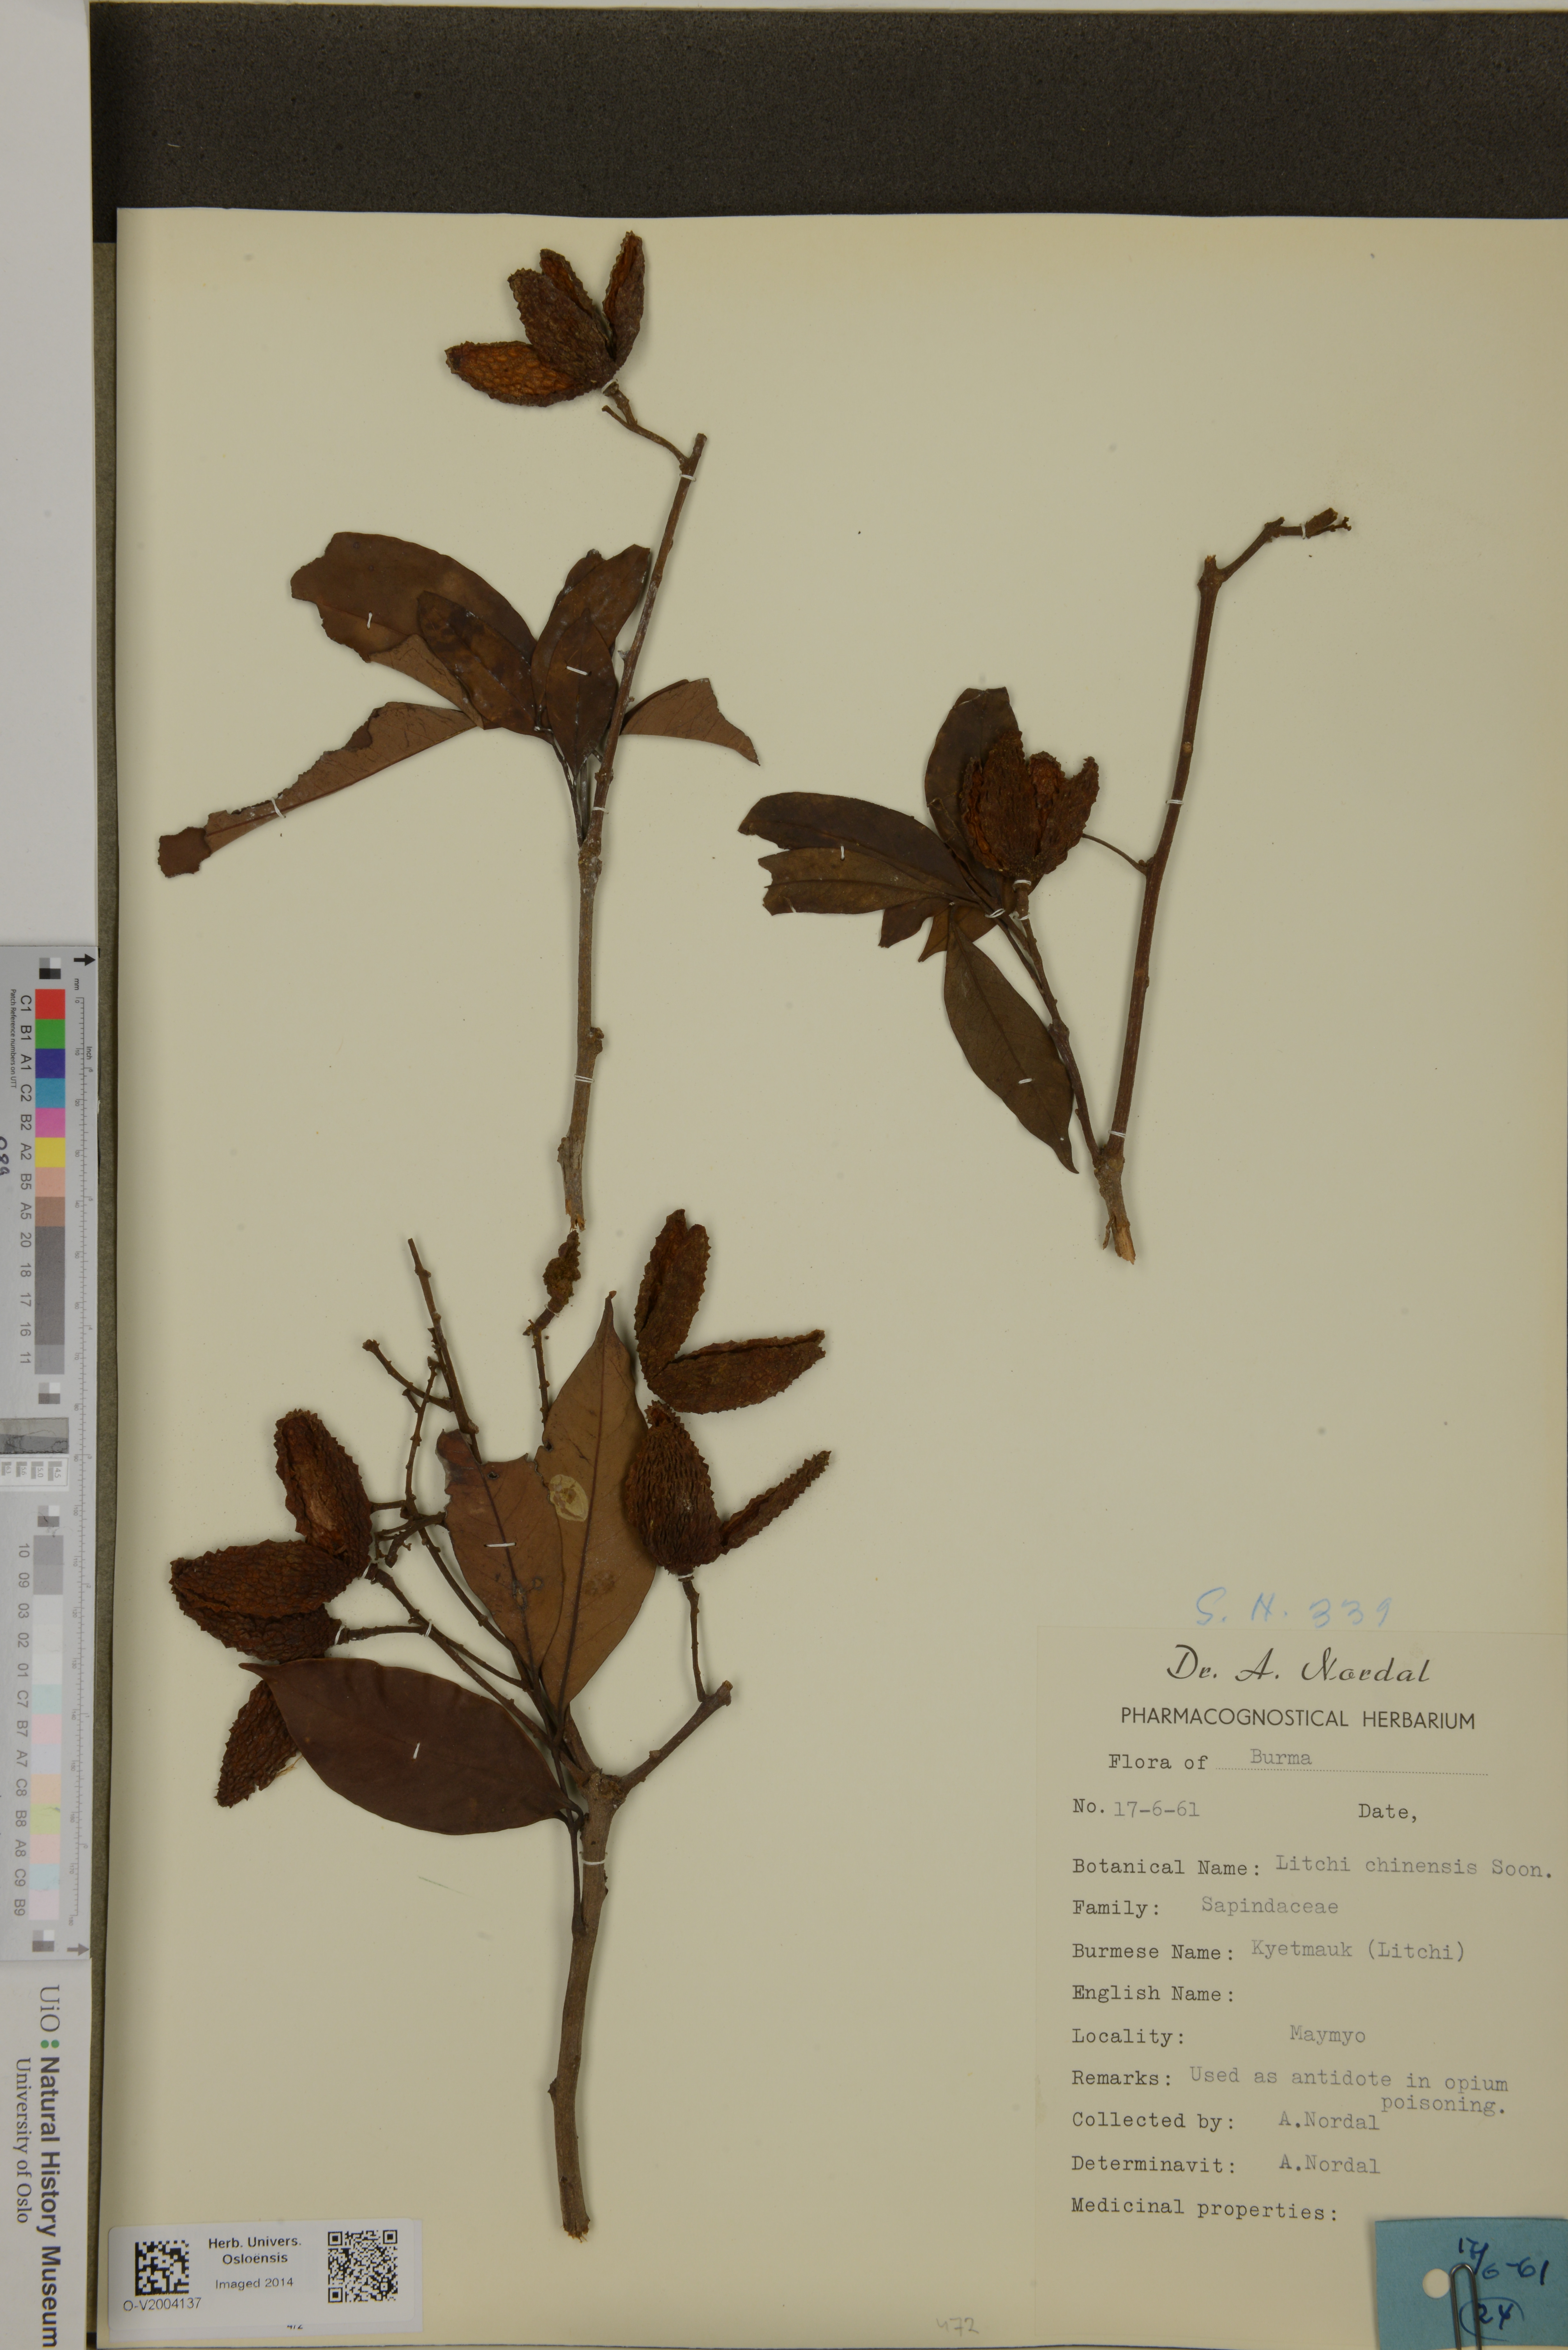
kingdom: Plantae
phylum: Tracheophyta
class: Magnoliopsida
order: Sapindales
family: Sapindaceae
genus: Litchi
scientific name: Litchi chinensis
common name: Litchi
